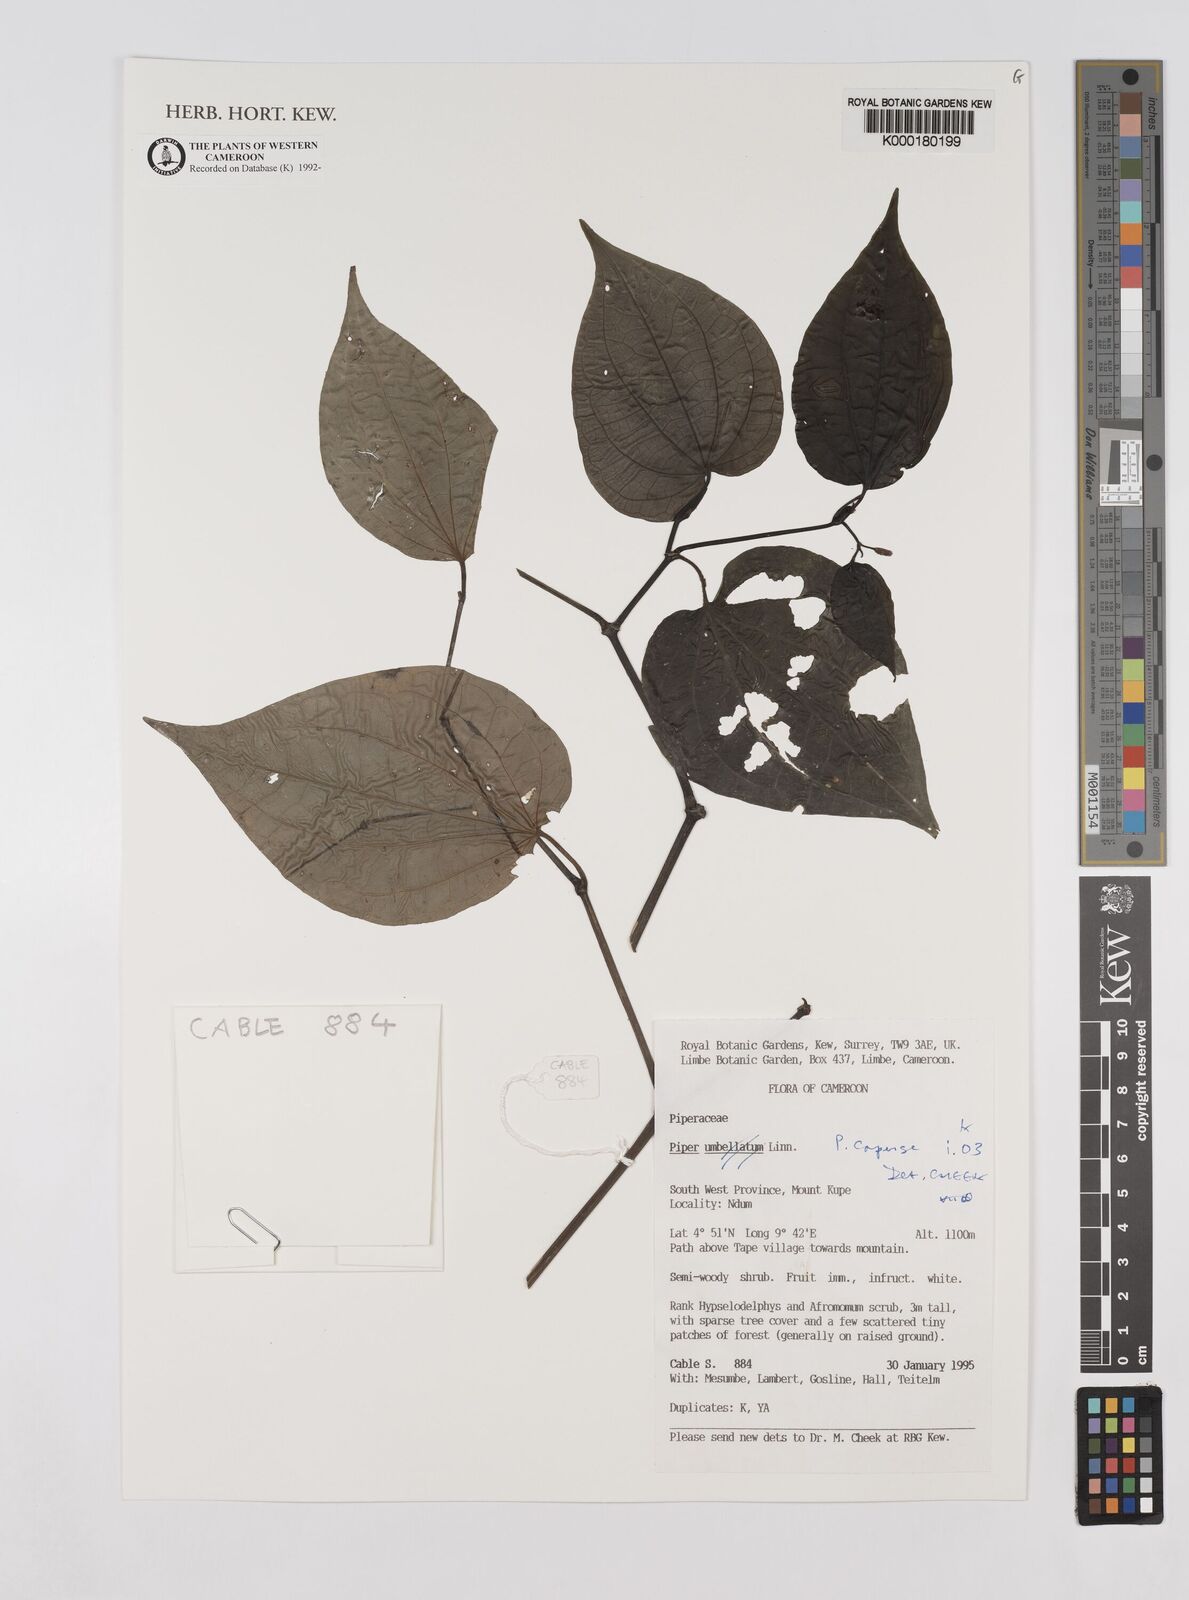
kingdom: Plantae
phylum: Tracheophyta
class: Magnoliopsida
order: Piperales
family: Piperaceae
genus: Piper
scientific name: Piper capense
